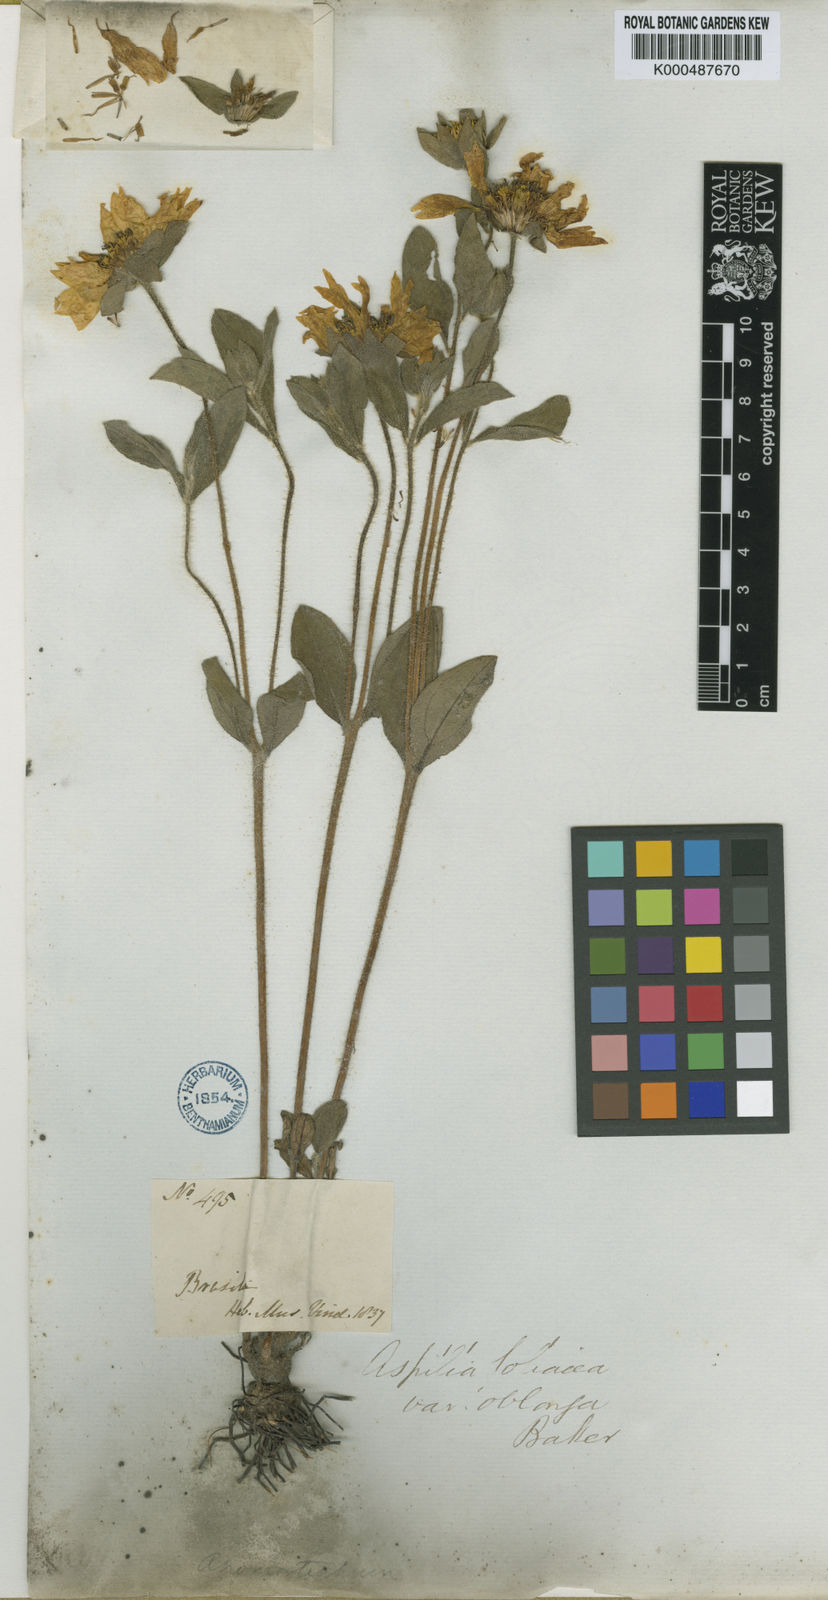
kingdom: Plantae
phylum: Tracheophyta
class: Magnoliopsida
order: Asterales
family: Asteraceae
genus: Wedelia
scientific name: Wedelia foliacea
